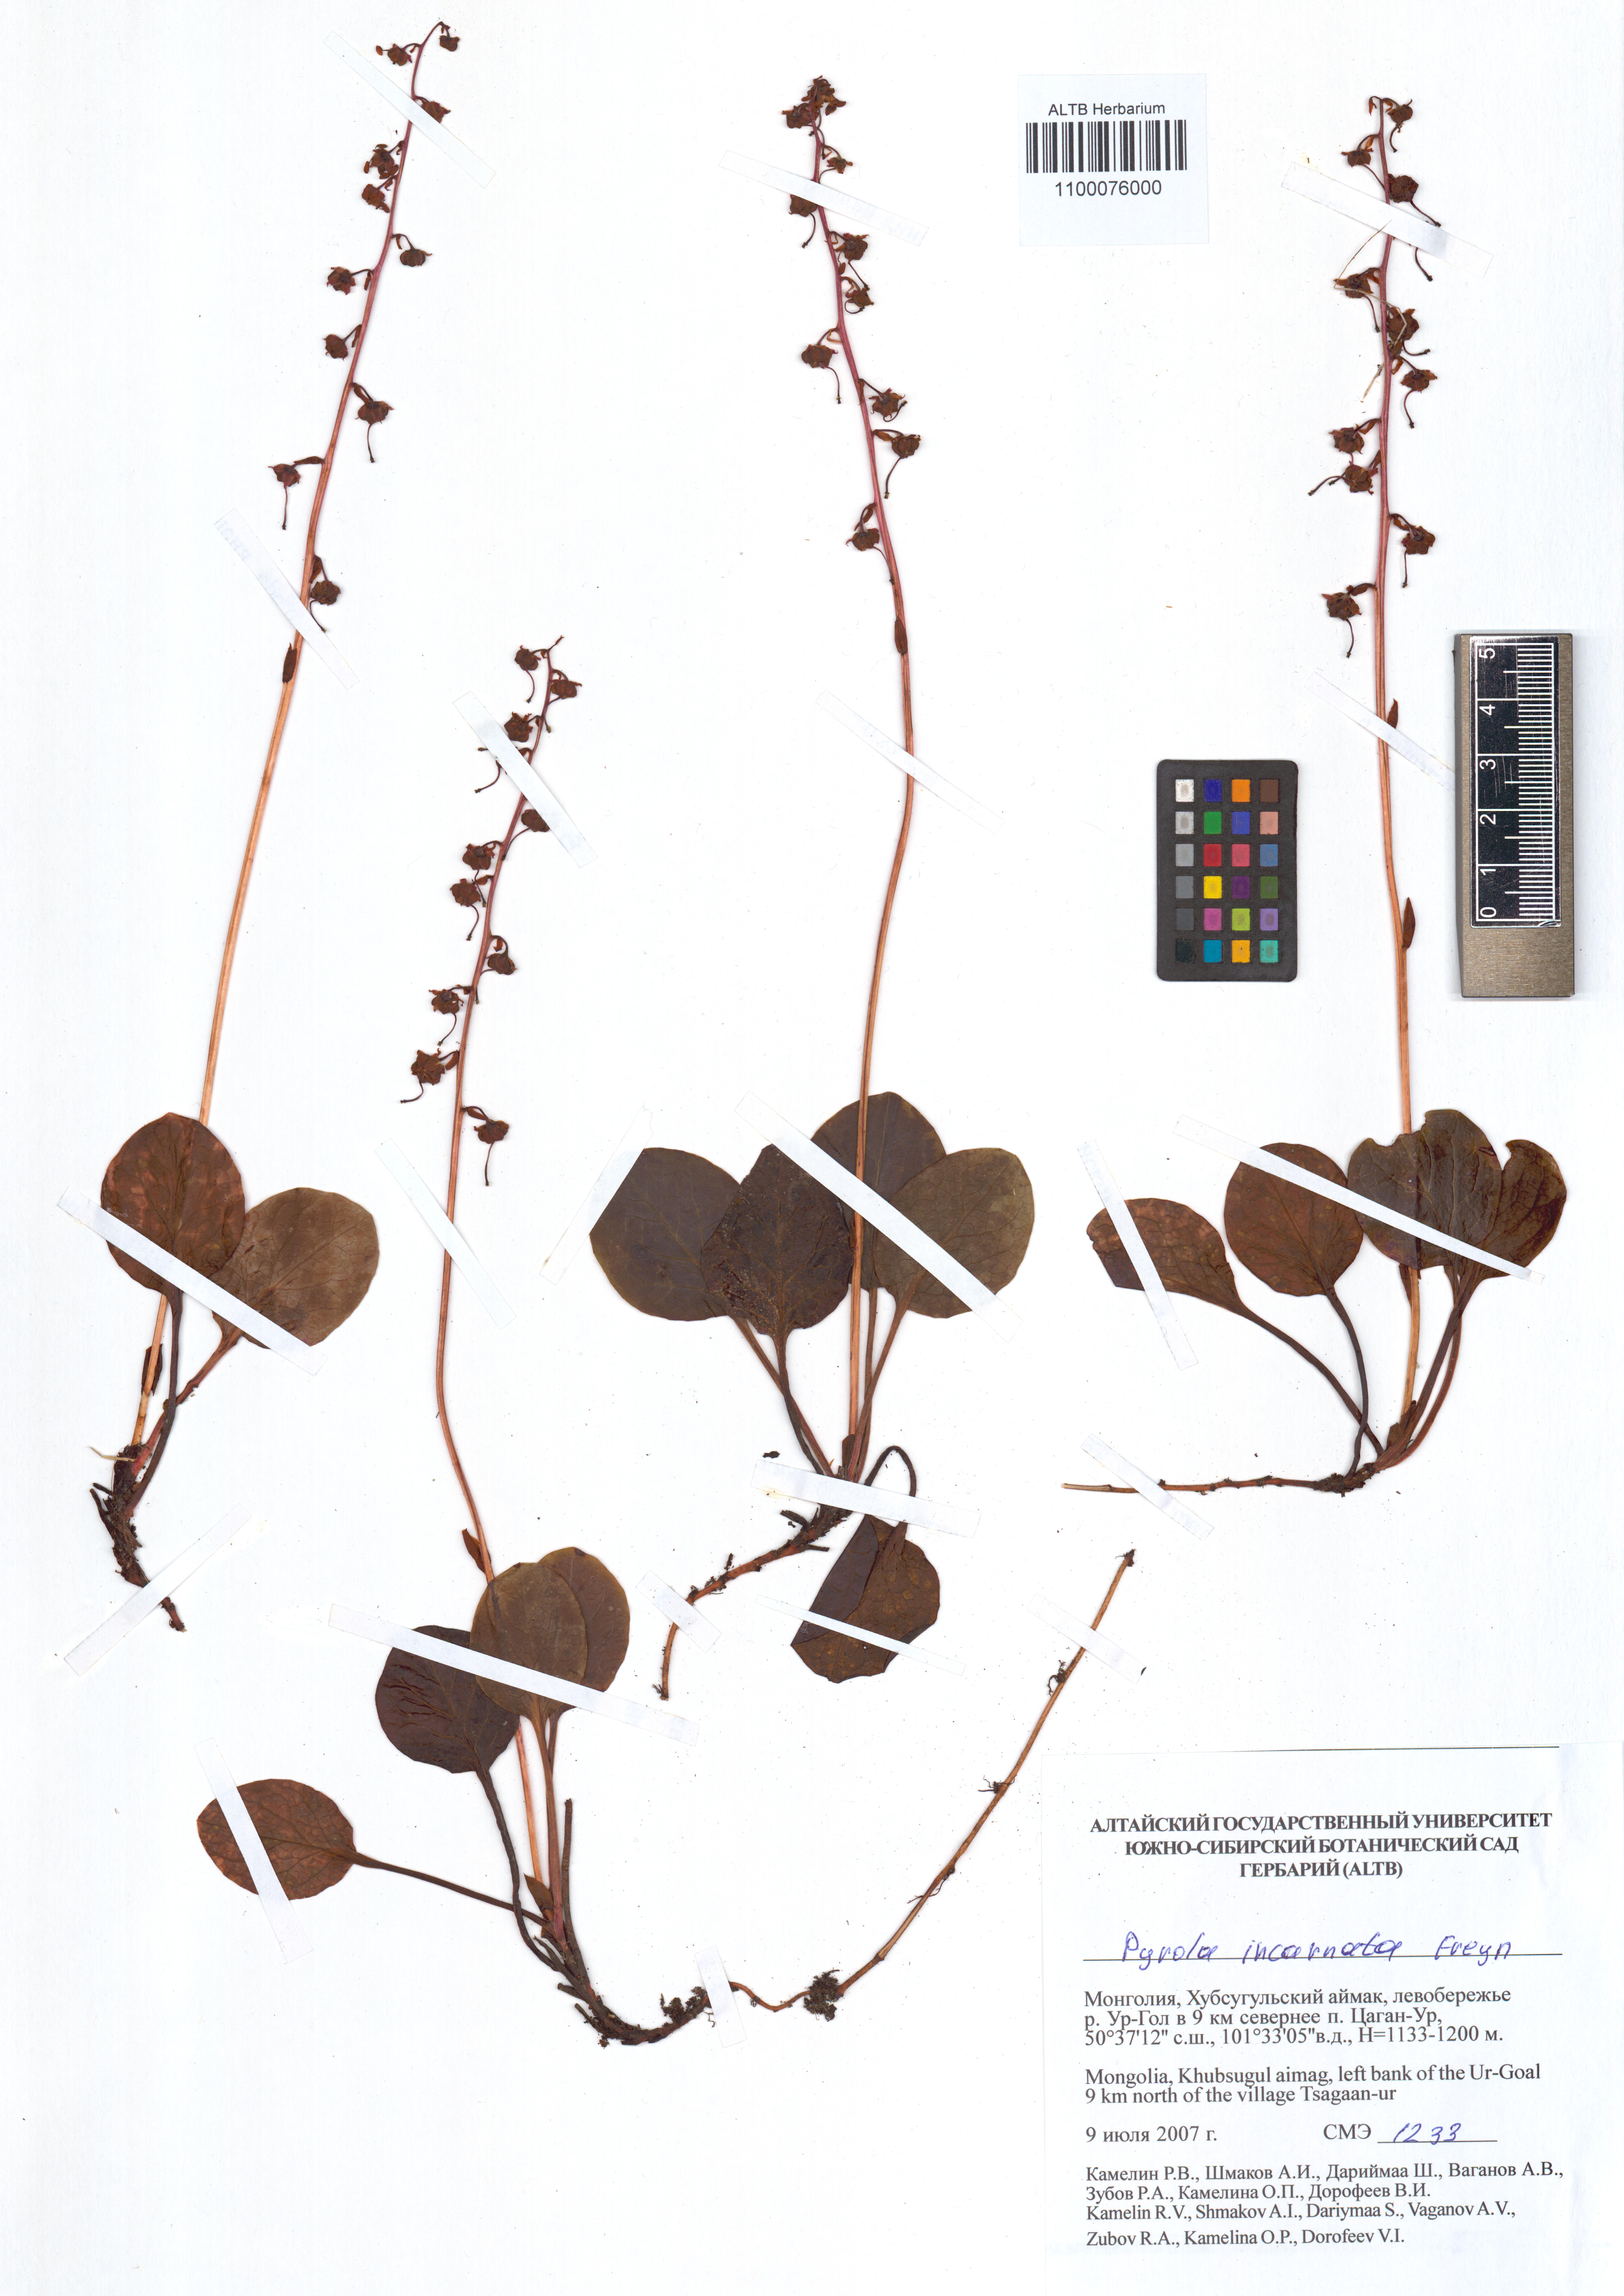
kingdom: Plantae
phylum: Tracheophyta
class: Magnoliopsida
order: Ericales
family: Ericaceae
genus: Pyrola
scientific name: Pyrola asarifolia
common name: Bog wintergreen
